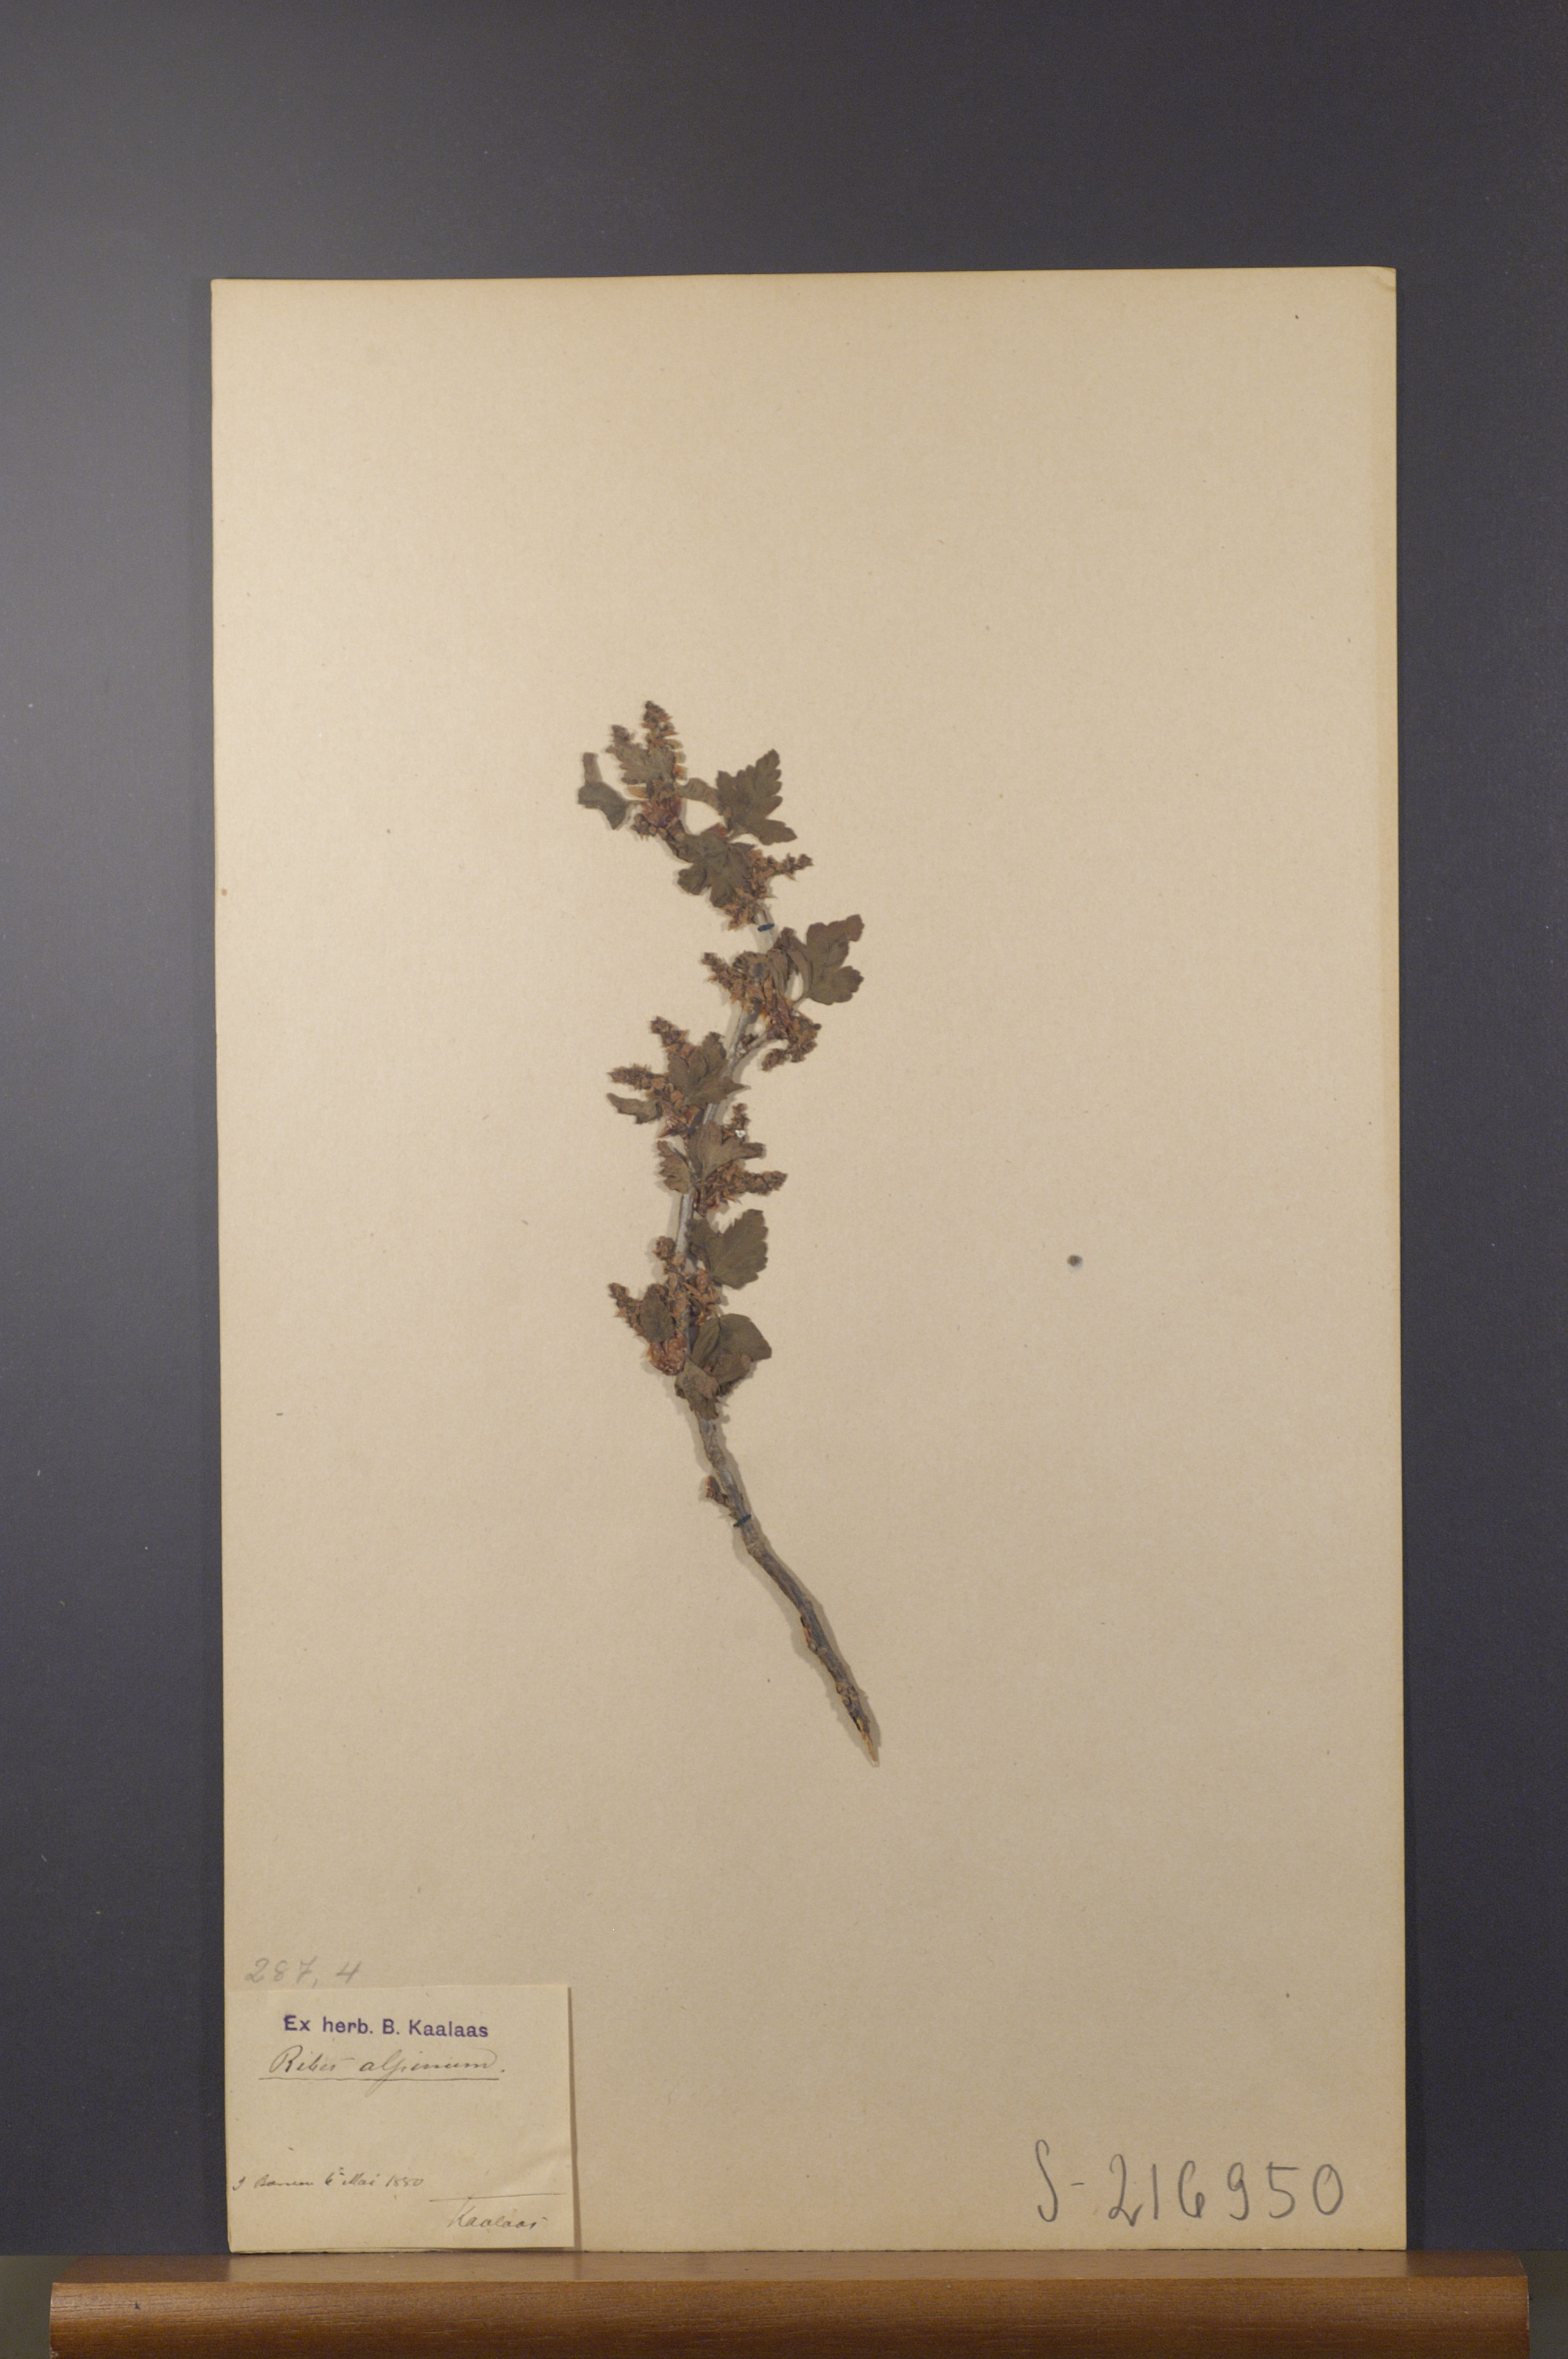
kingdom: Plantae
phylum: Tracheophyta
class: Magnoliopsida
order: Saxifragales
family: Grossulariaceae
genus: Ribes
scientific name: Ribes alpinum
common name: Alpine currant
